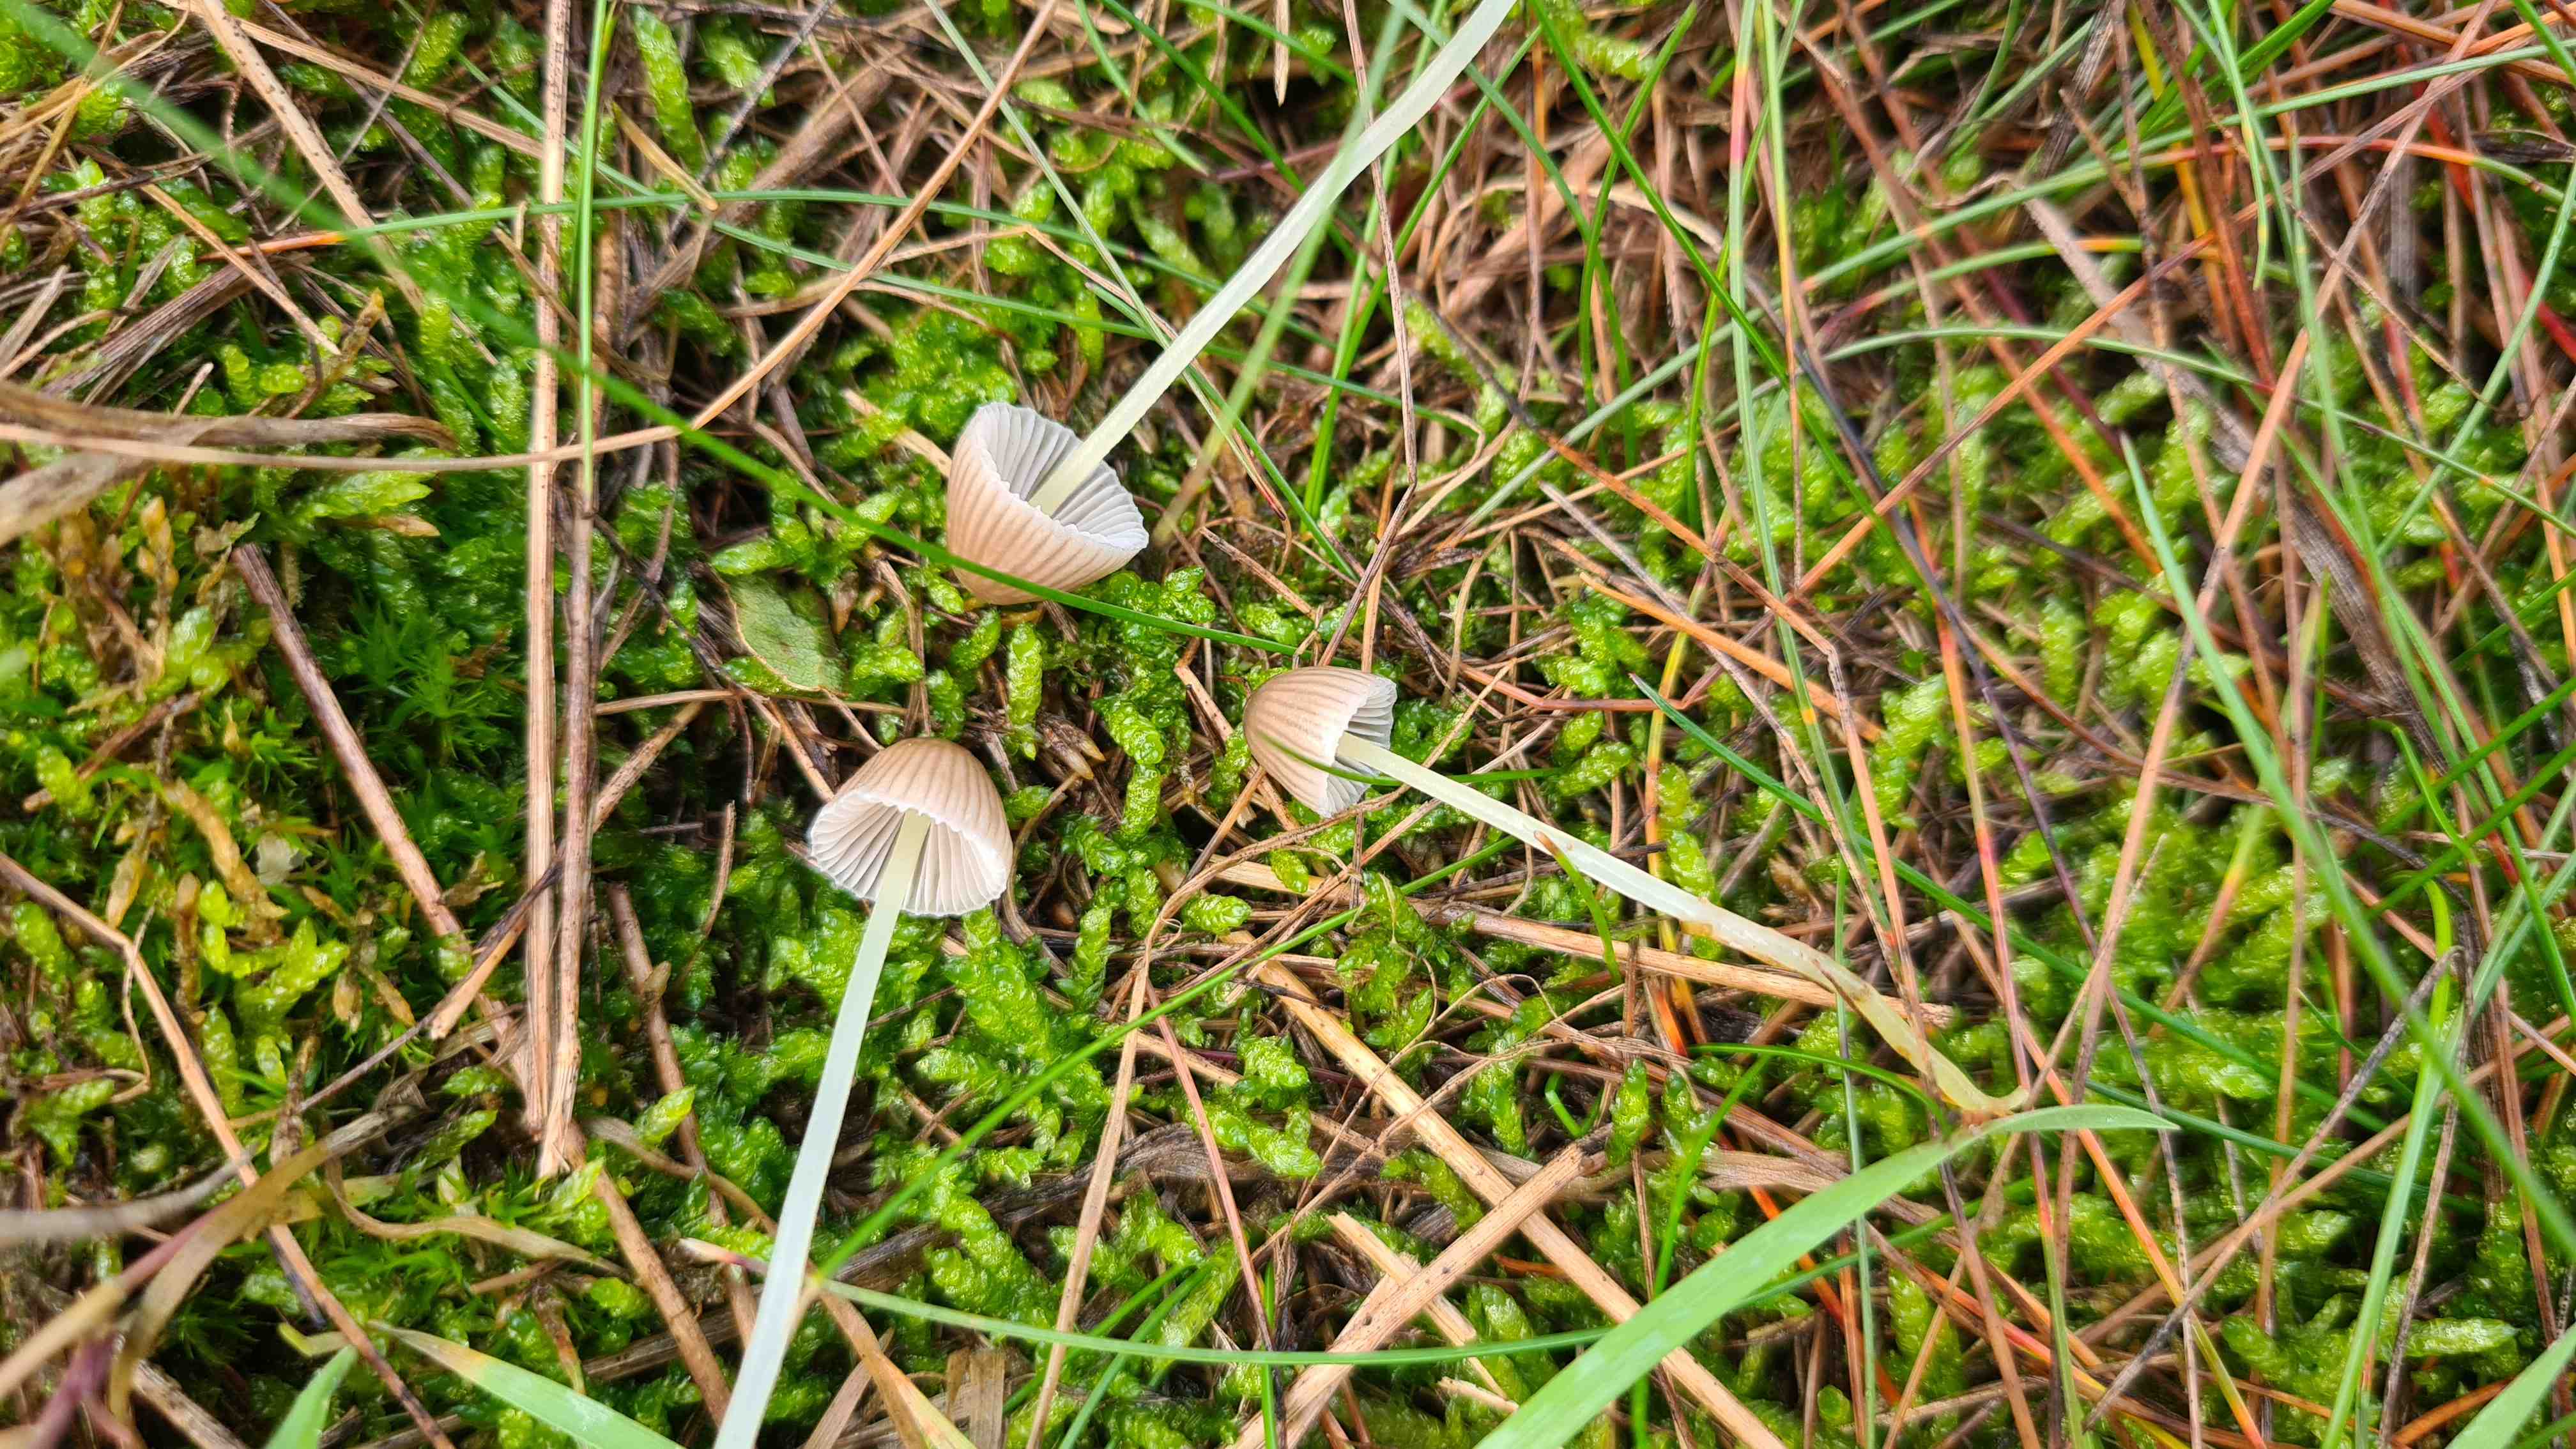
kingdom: Fungi
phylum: Basidiomycota
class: Agaricomycetes
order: Agaricales
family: Mycenaceae
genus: Mycena
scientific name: Mycena epipterygia
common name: gulstokket huesvamp
